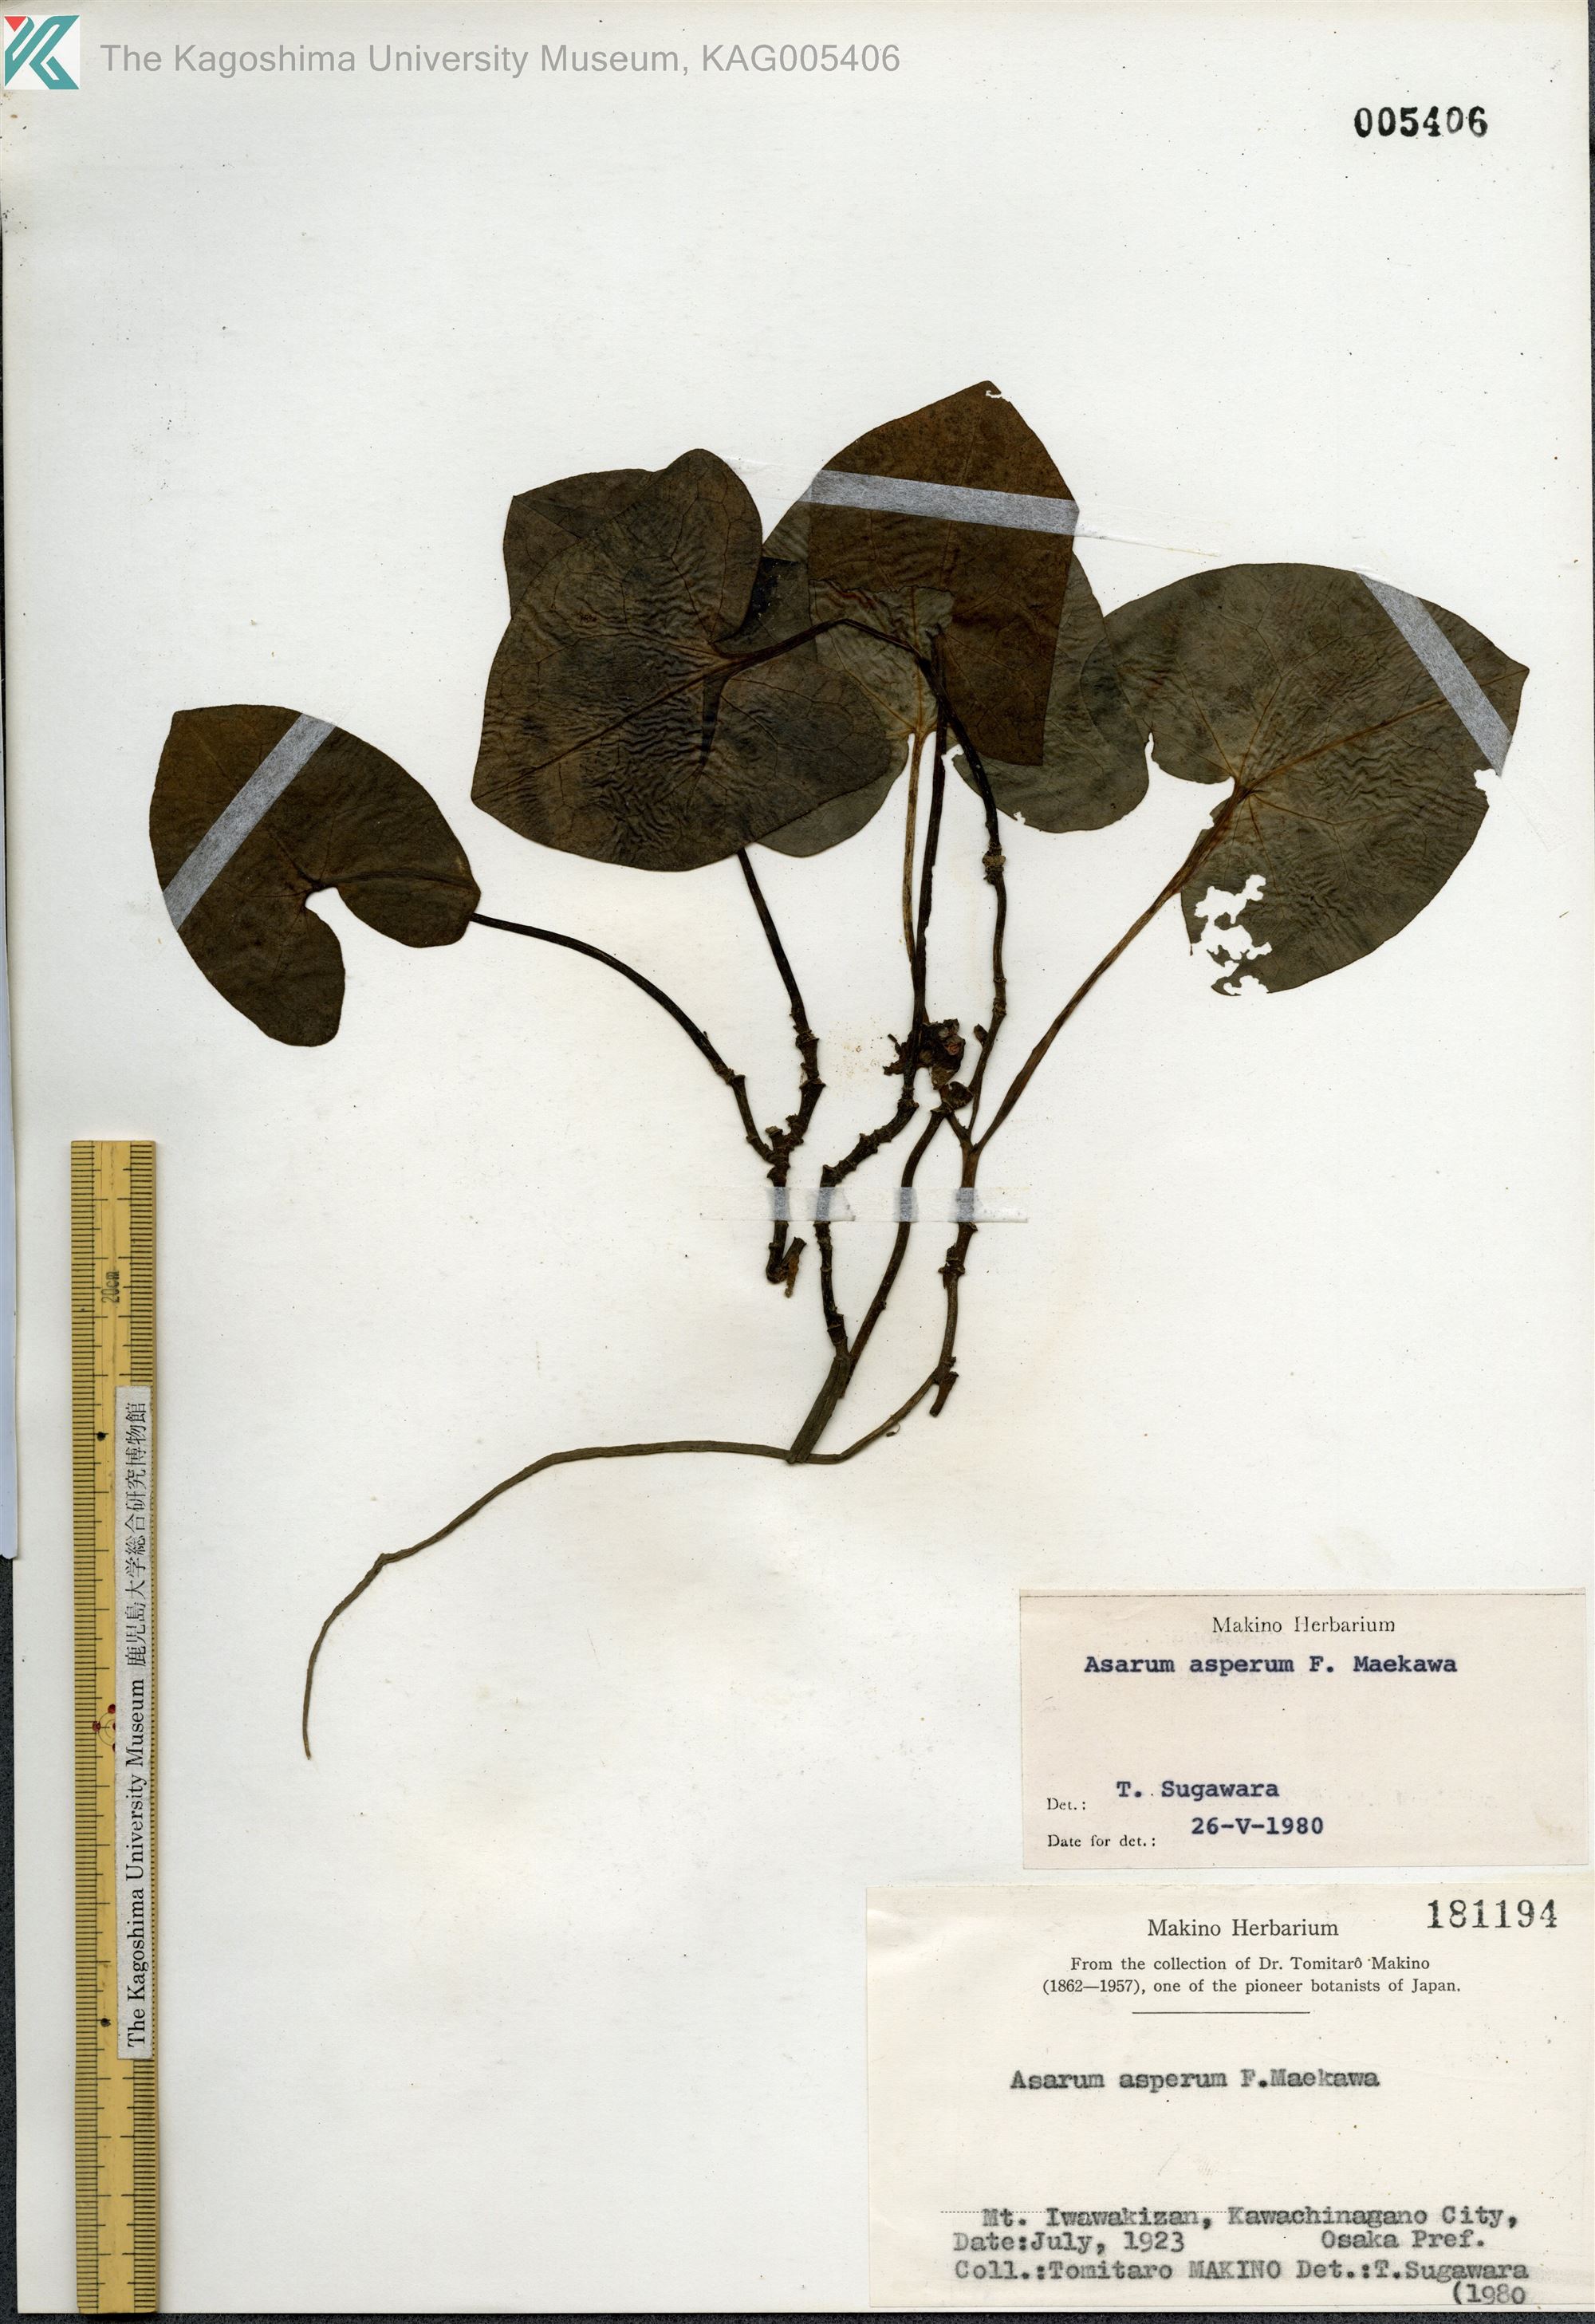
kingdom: Plantae
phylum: Tracheophyta
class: Magnoliopsida
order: Piperales
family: Aristolochiaceae
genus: Asarum
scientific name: Asarum asperum
